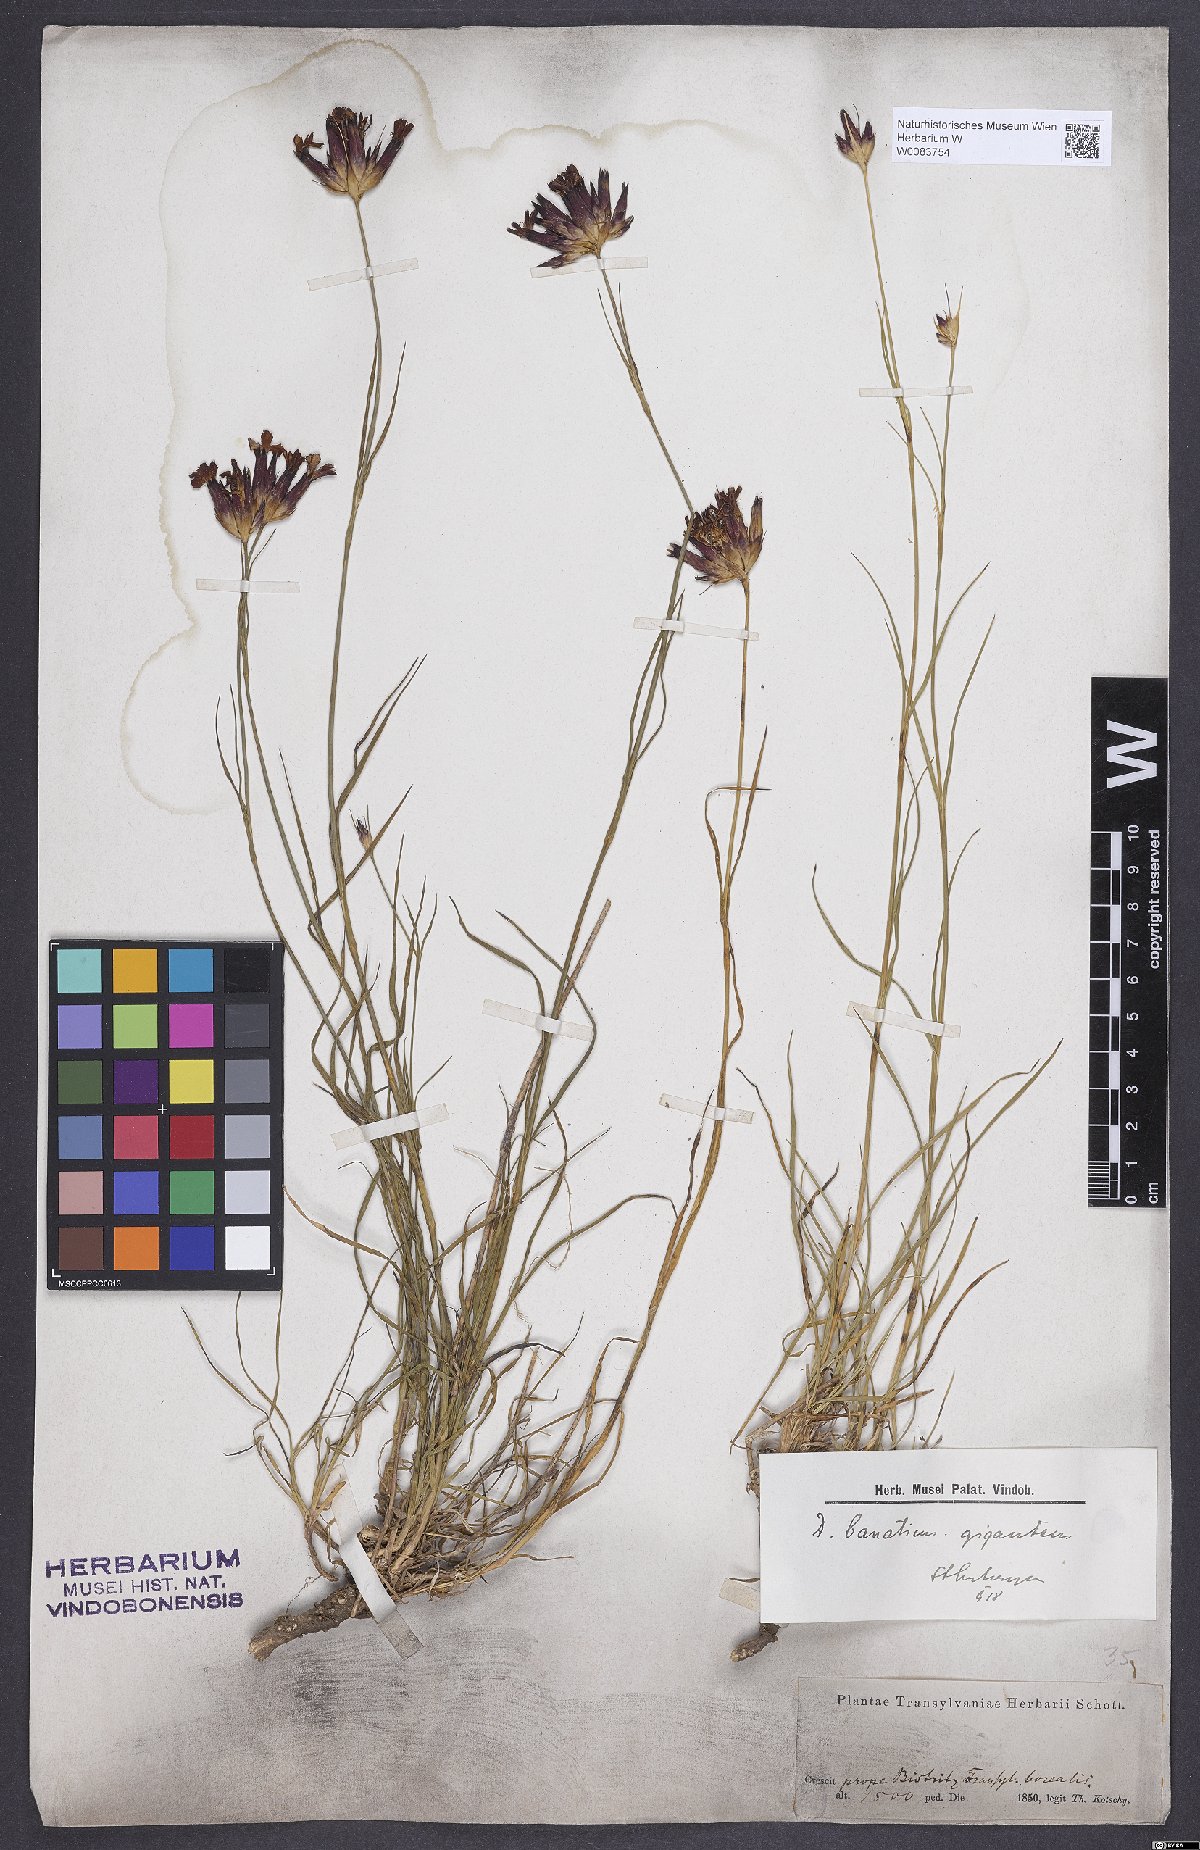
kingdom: Plantae
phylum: Tracheophyta
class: Magnoliopsida
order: Caryophyllales
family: Caryophyllaceae
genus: Dianthus
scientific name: Dianthus giganteus
